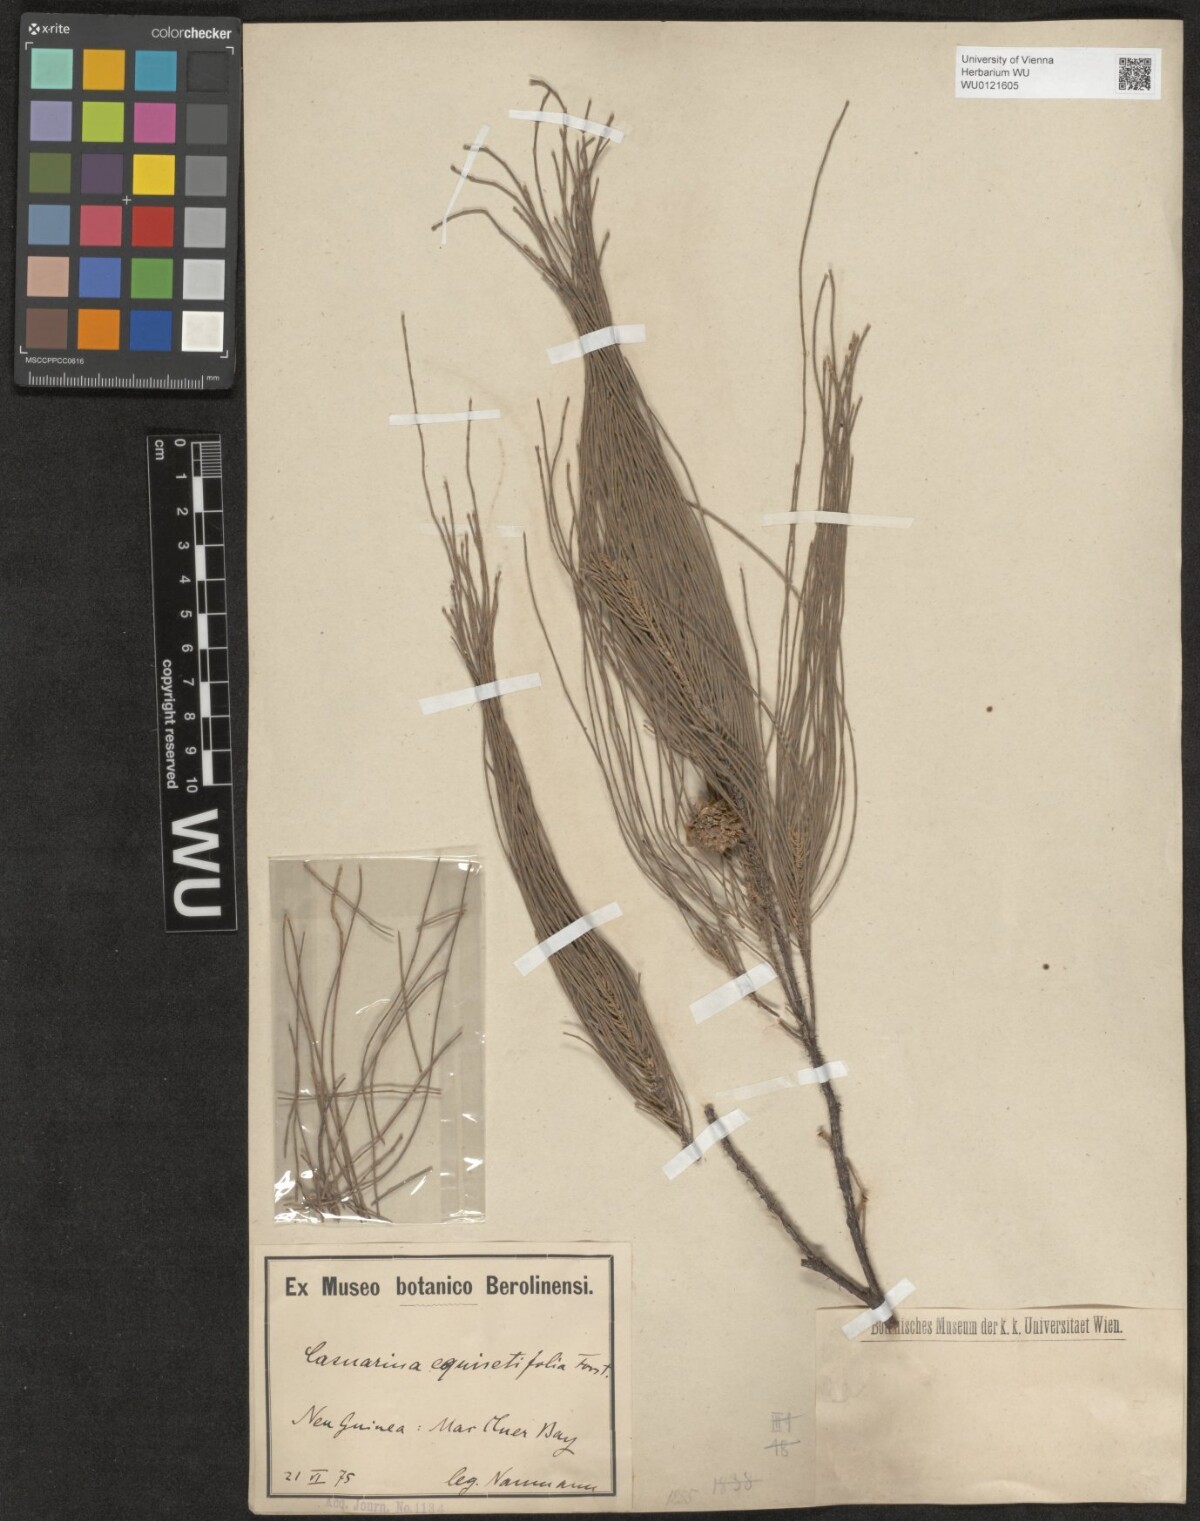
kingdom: Plantae
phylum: Tracheophyta
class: Magnoliopsida
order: Fagales
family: Casuarinaceae
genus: Casuarina
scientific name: Casuarina equisetifolia
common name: Beach sheoak
